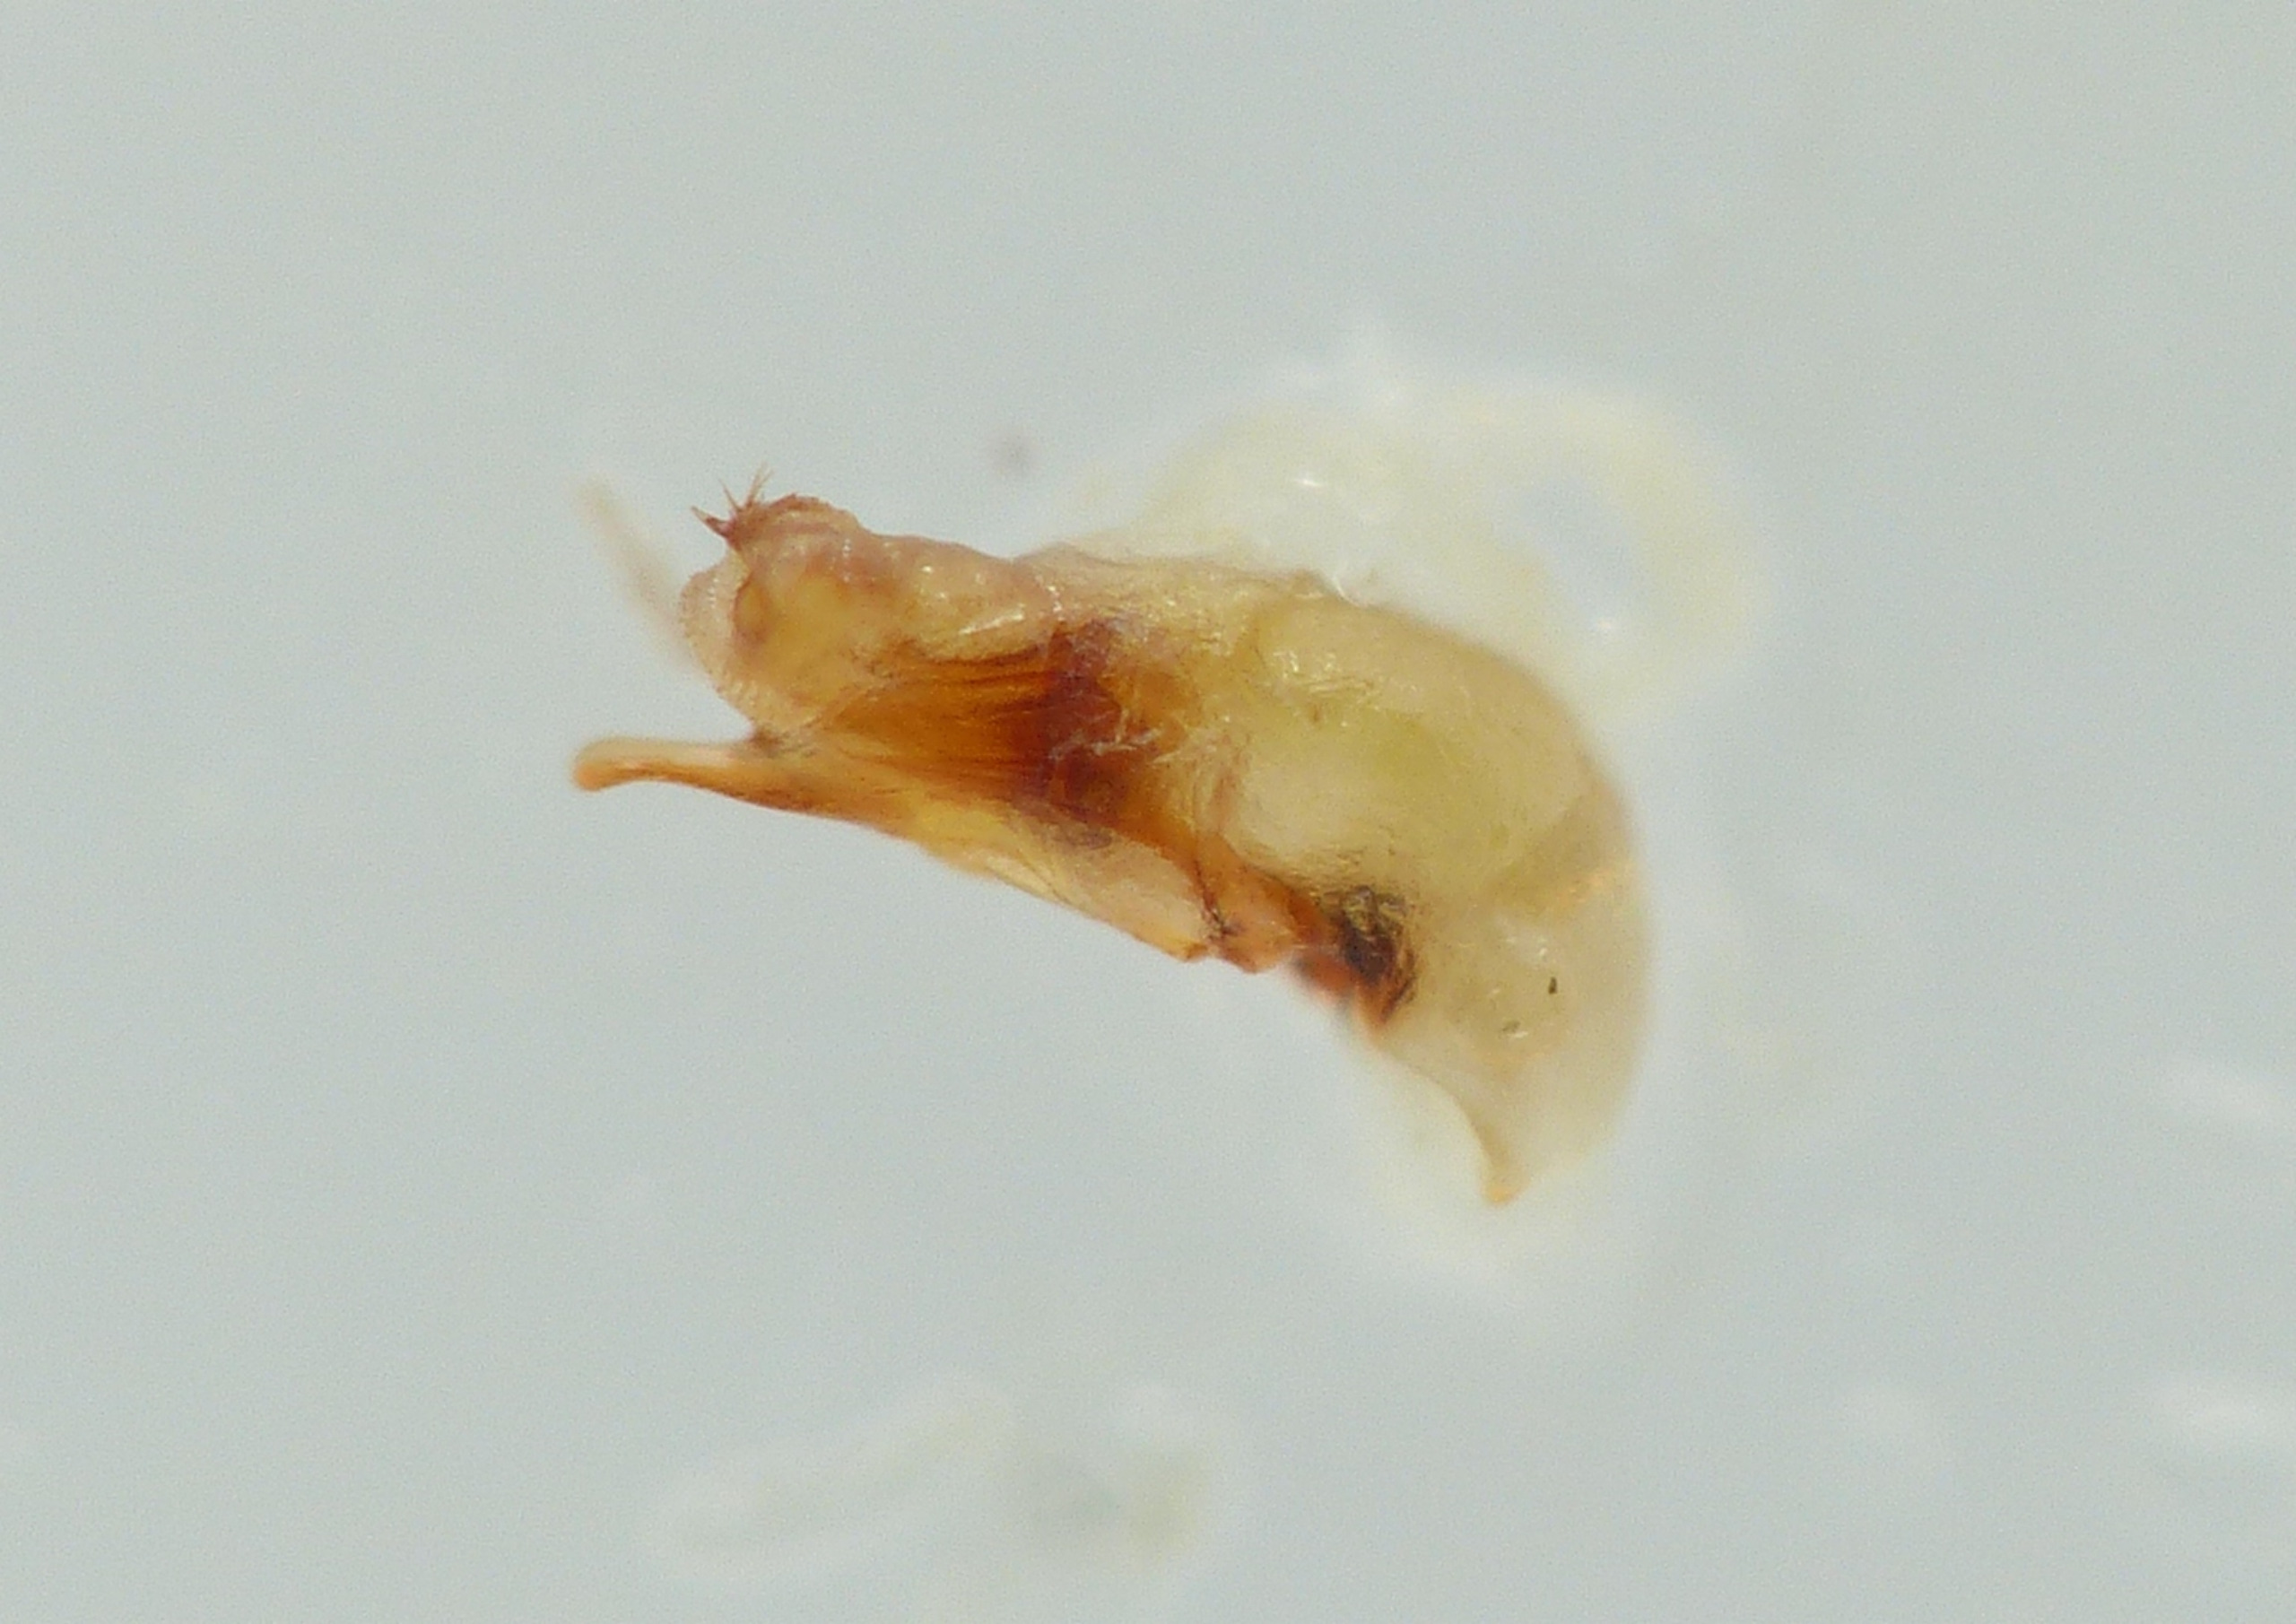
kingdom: Animalia
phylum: Arthropoda
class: Insecta
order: Coleoptera
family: Carabidae
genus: Trechus
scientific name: Trechus obtusus
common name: Kratgrotteløber
